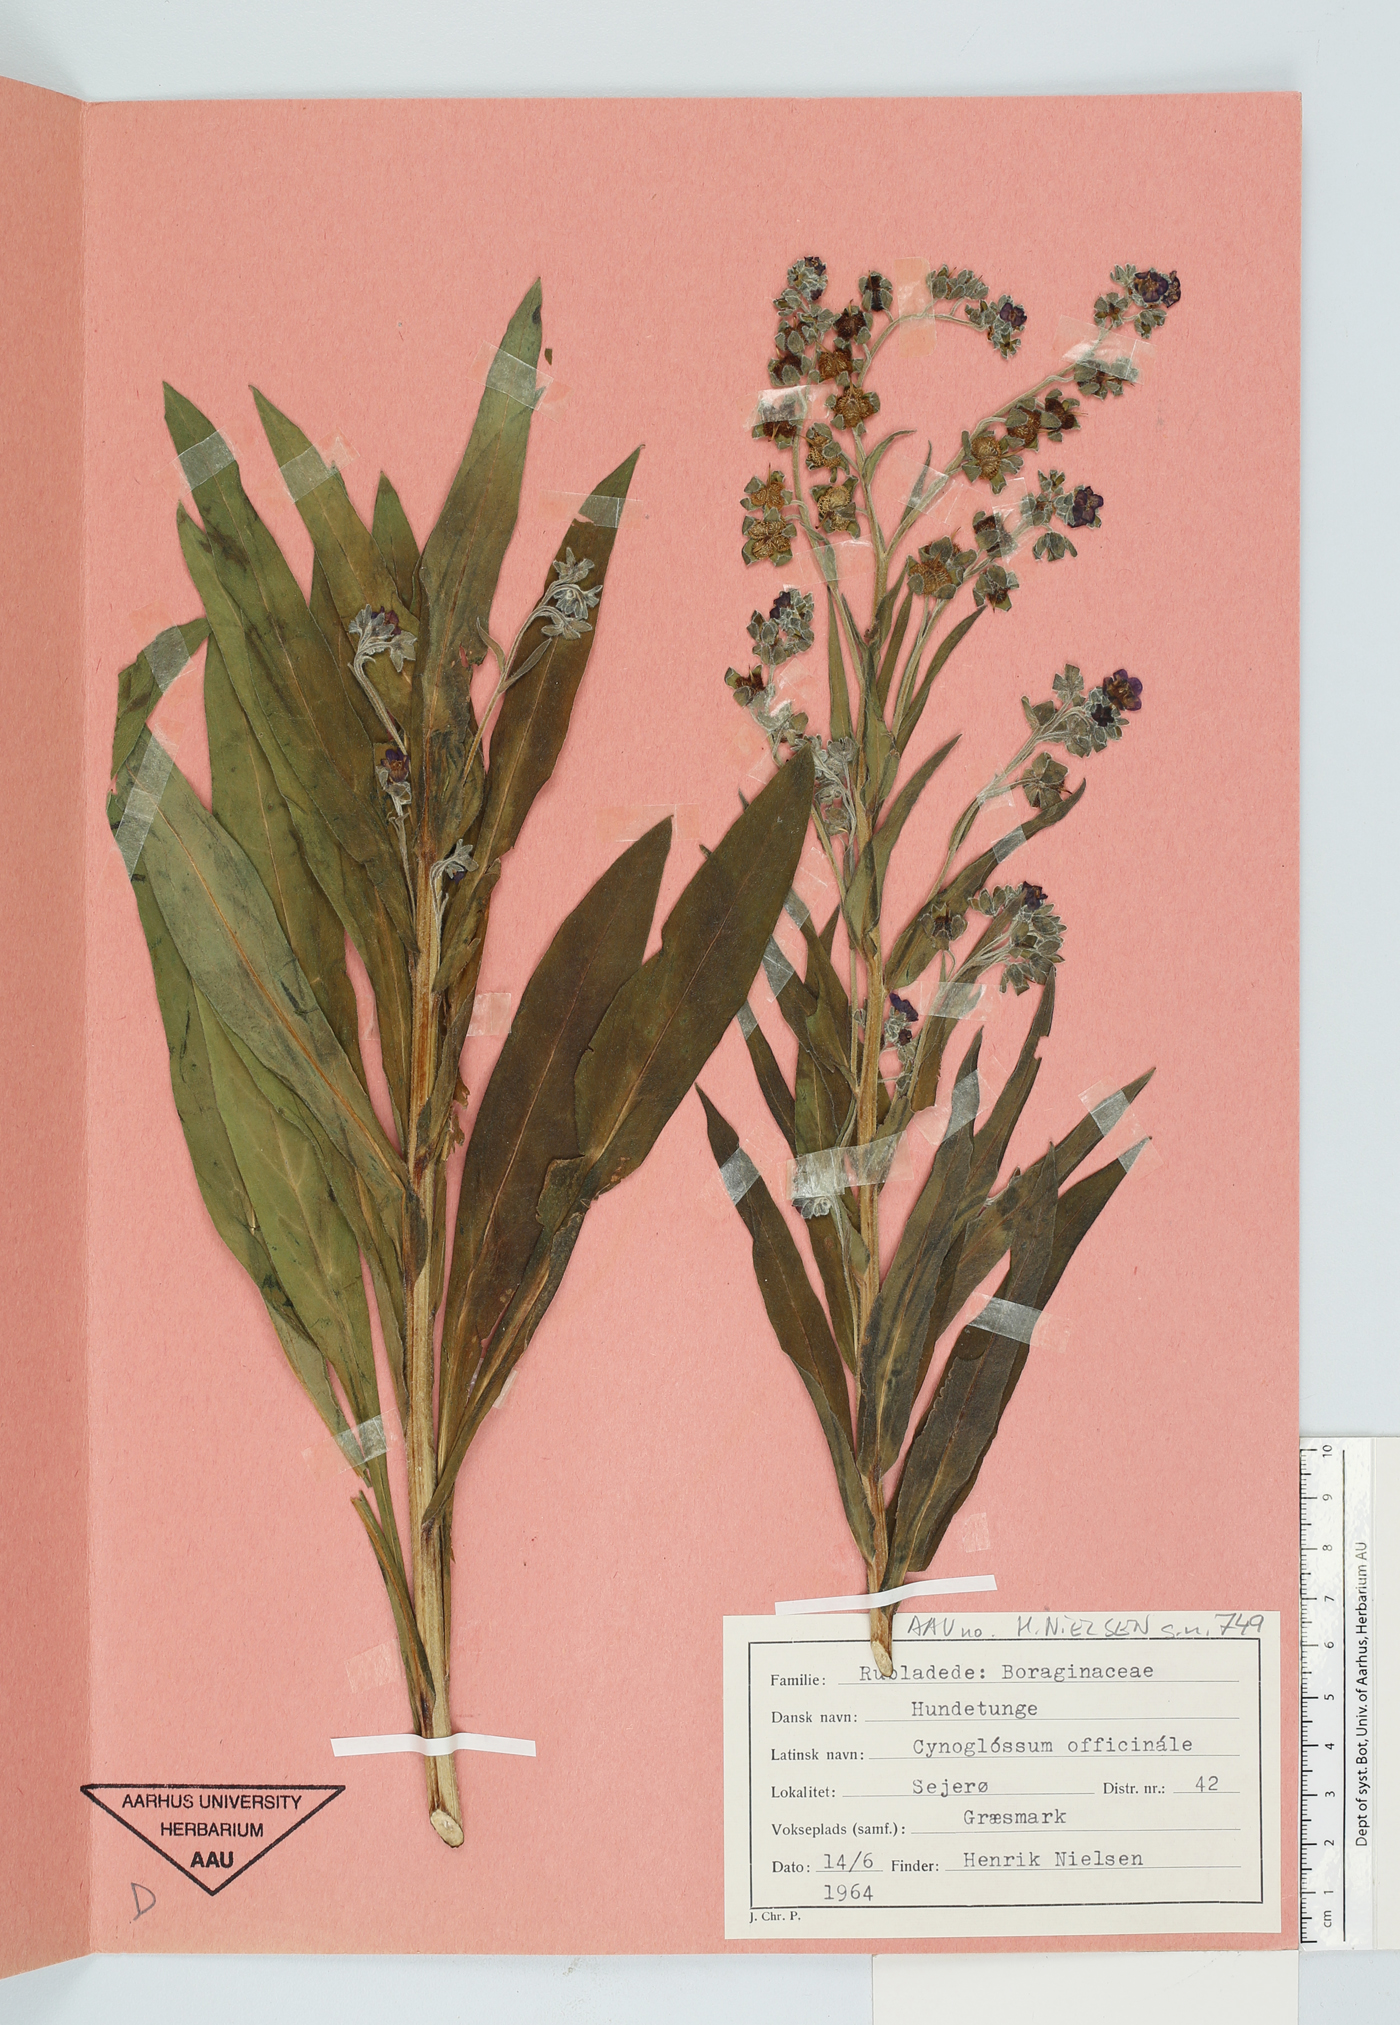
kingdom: Plantae
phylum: Tracheophyta
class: Magnoliopsida
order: Boraginales
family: Boraginaceae
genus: Cynoglossum
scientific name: Cynoglossum officinale
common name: Hound's-tongue
